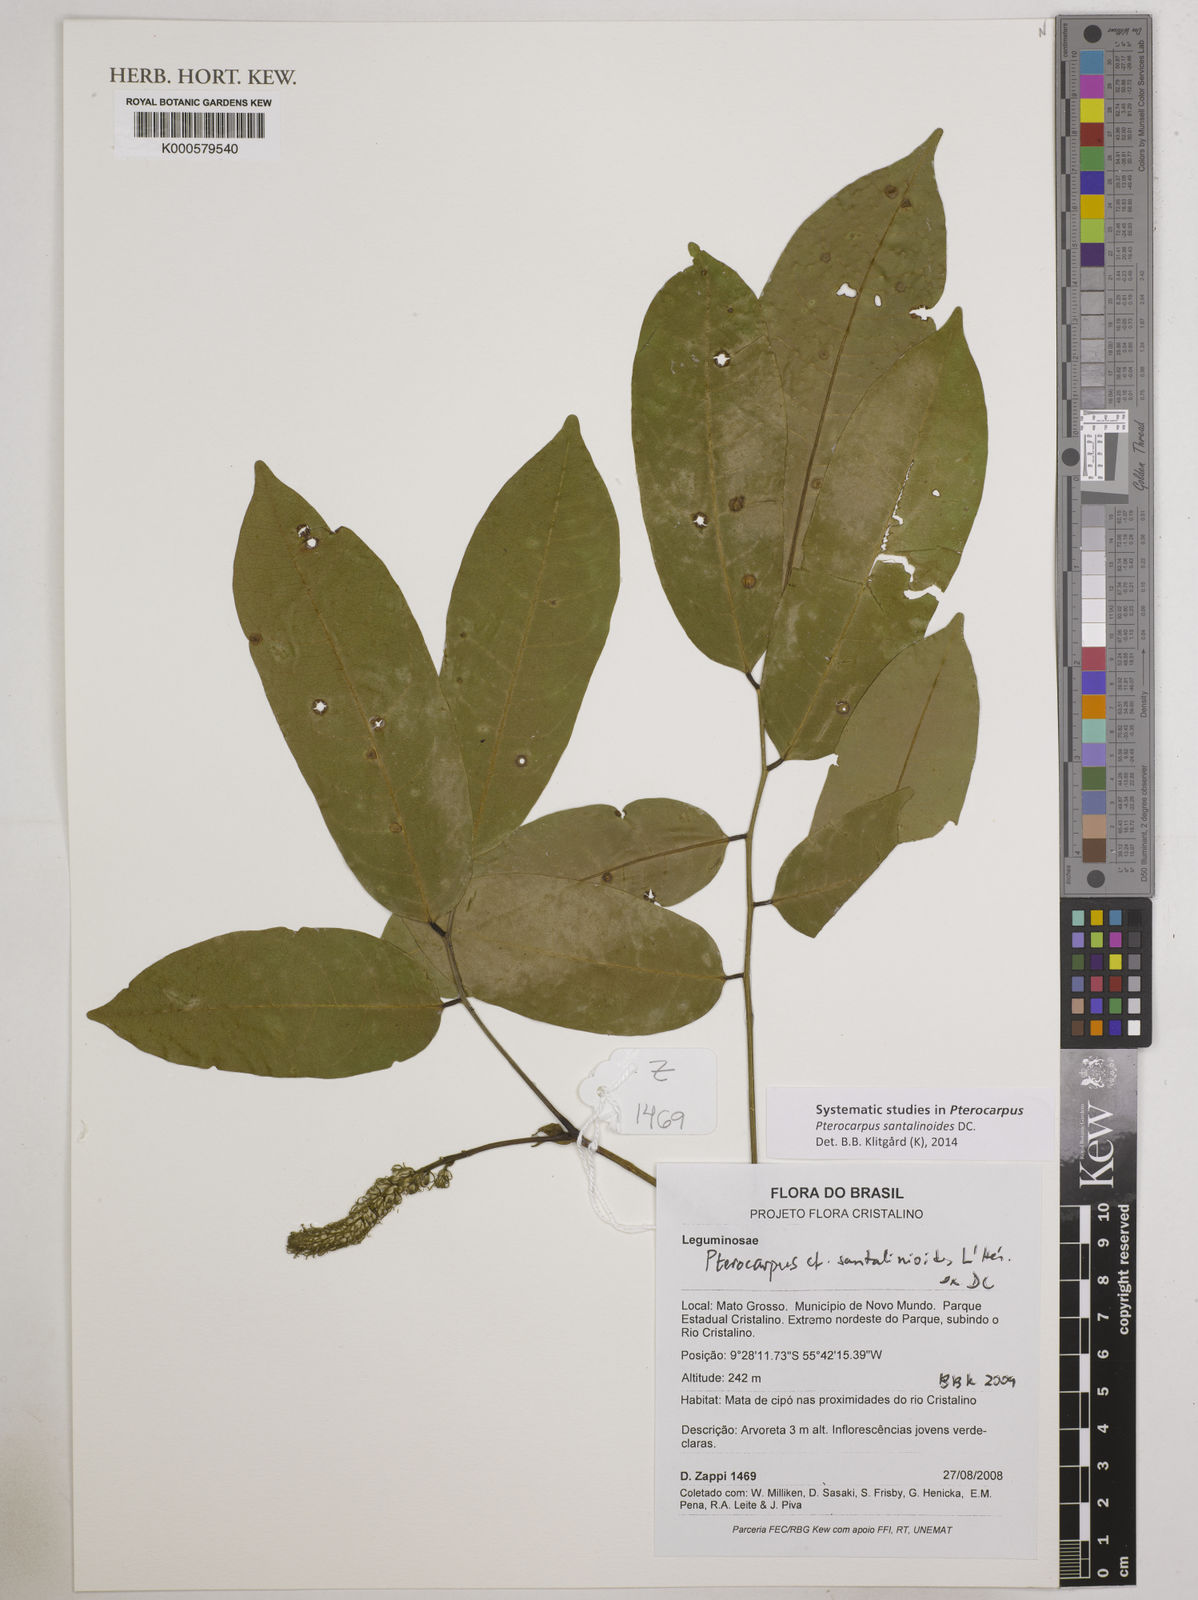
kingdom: Plantae
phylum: Tracheophyta
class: Magnoliopsida
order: Fabales
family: Fabaceae
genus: Pterocarpus
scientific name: Pterocarpus santalinoides
